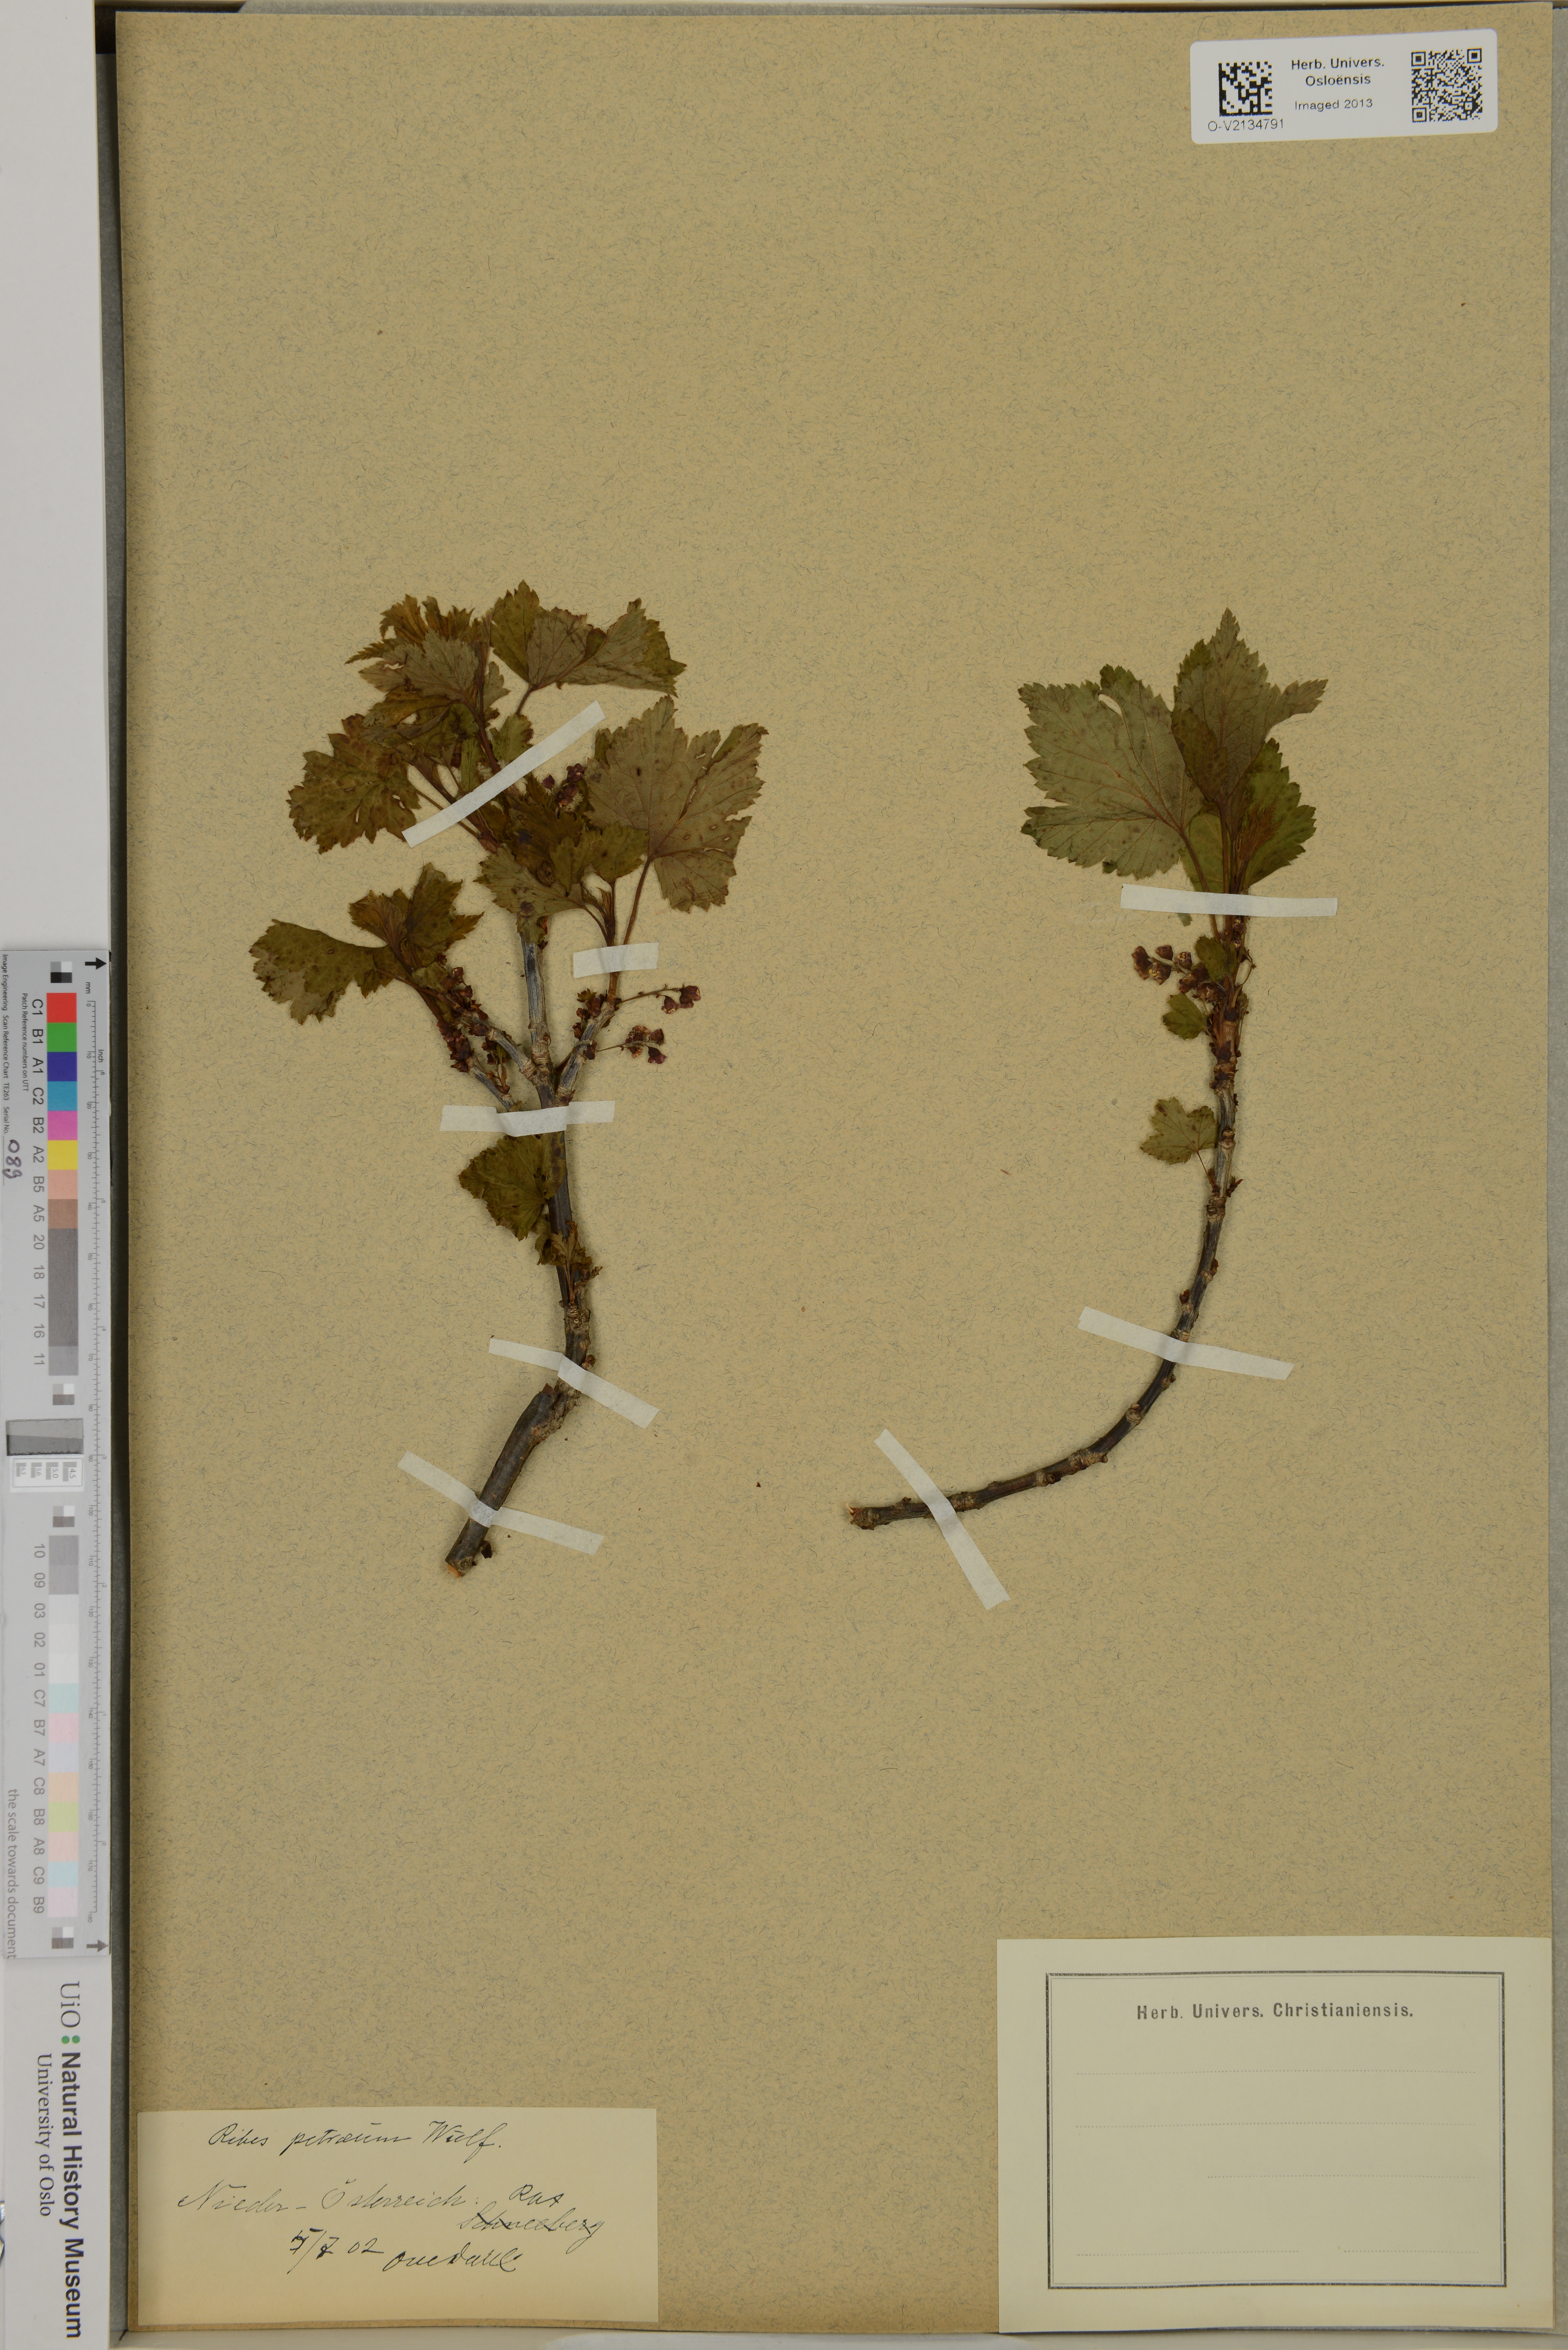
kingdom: Plantae
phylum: Tracheophyta
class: Magnoliopsida
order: Saxifragales
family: Grossulariaceae
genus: Ribes
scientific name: Ribes petraeum
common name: Rock currant
